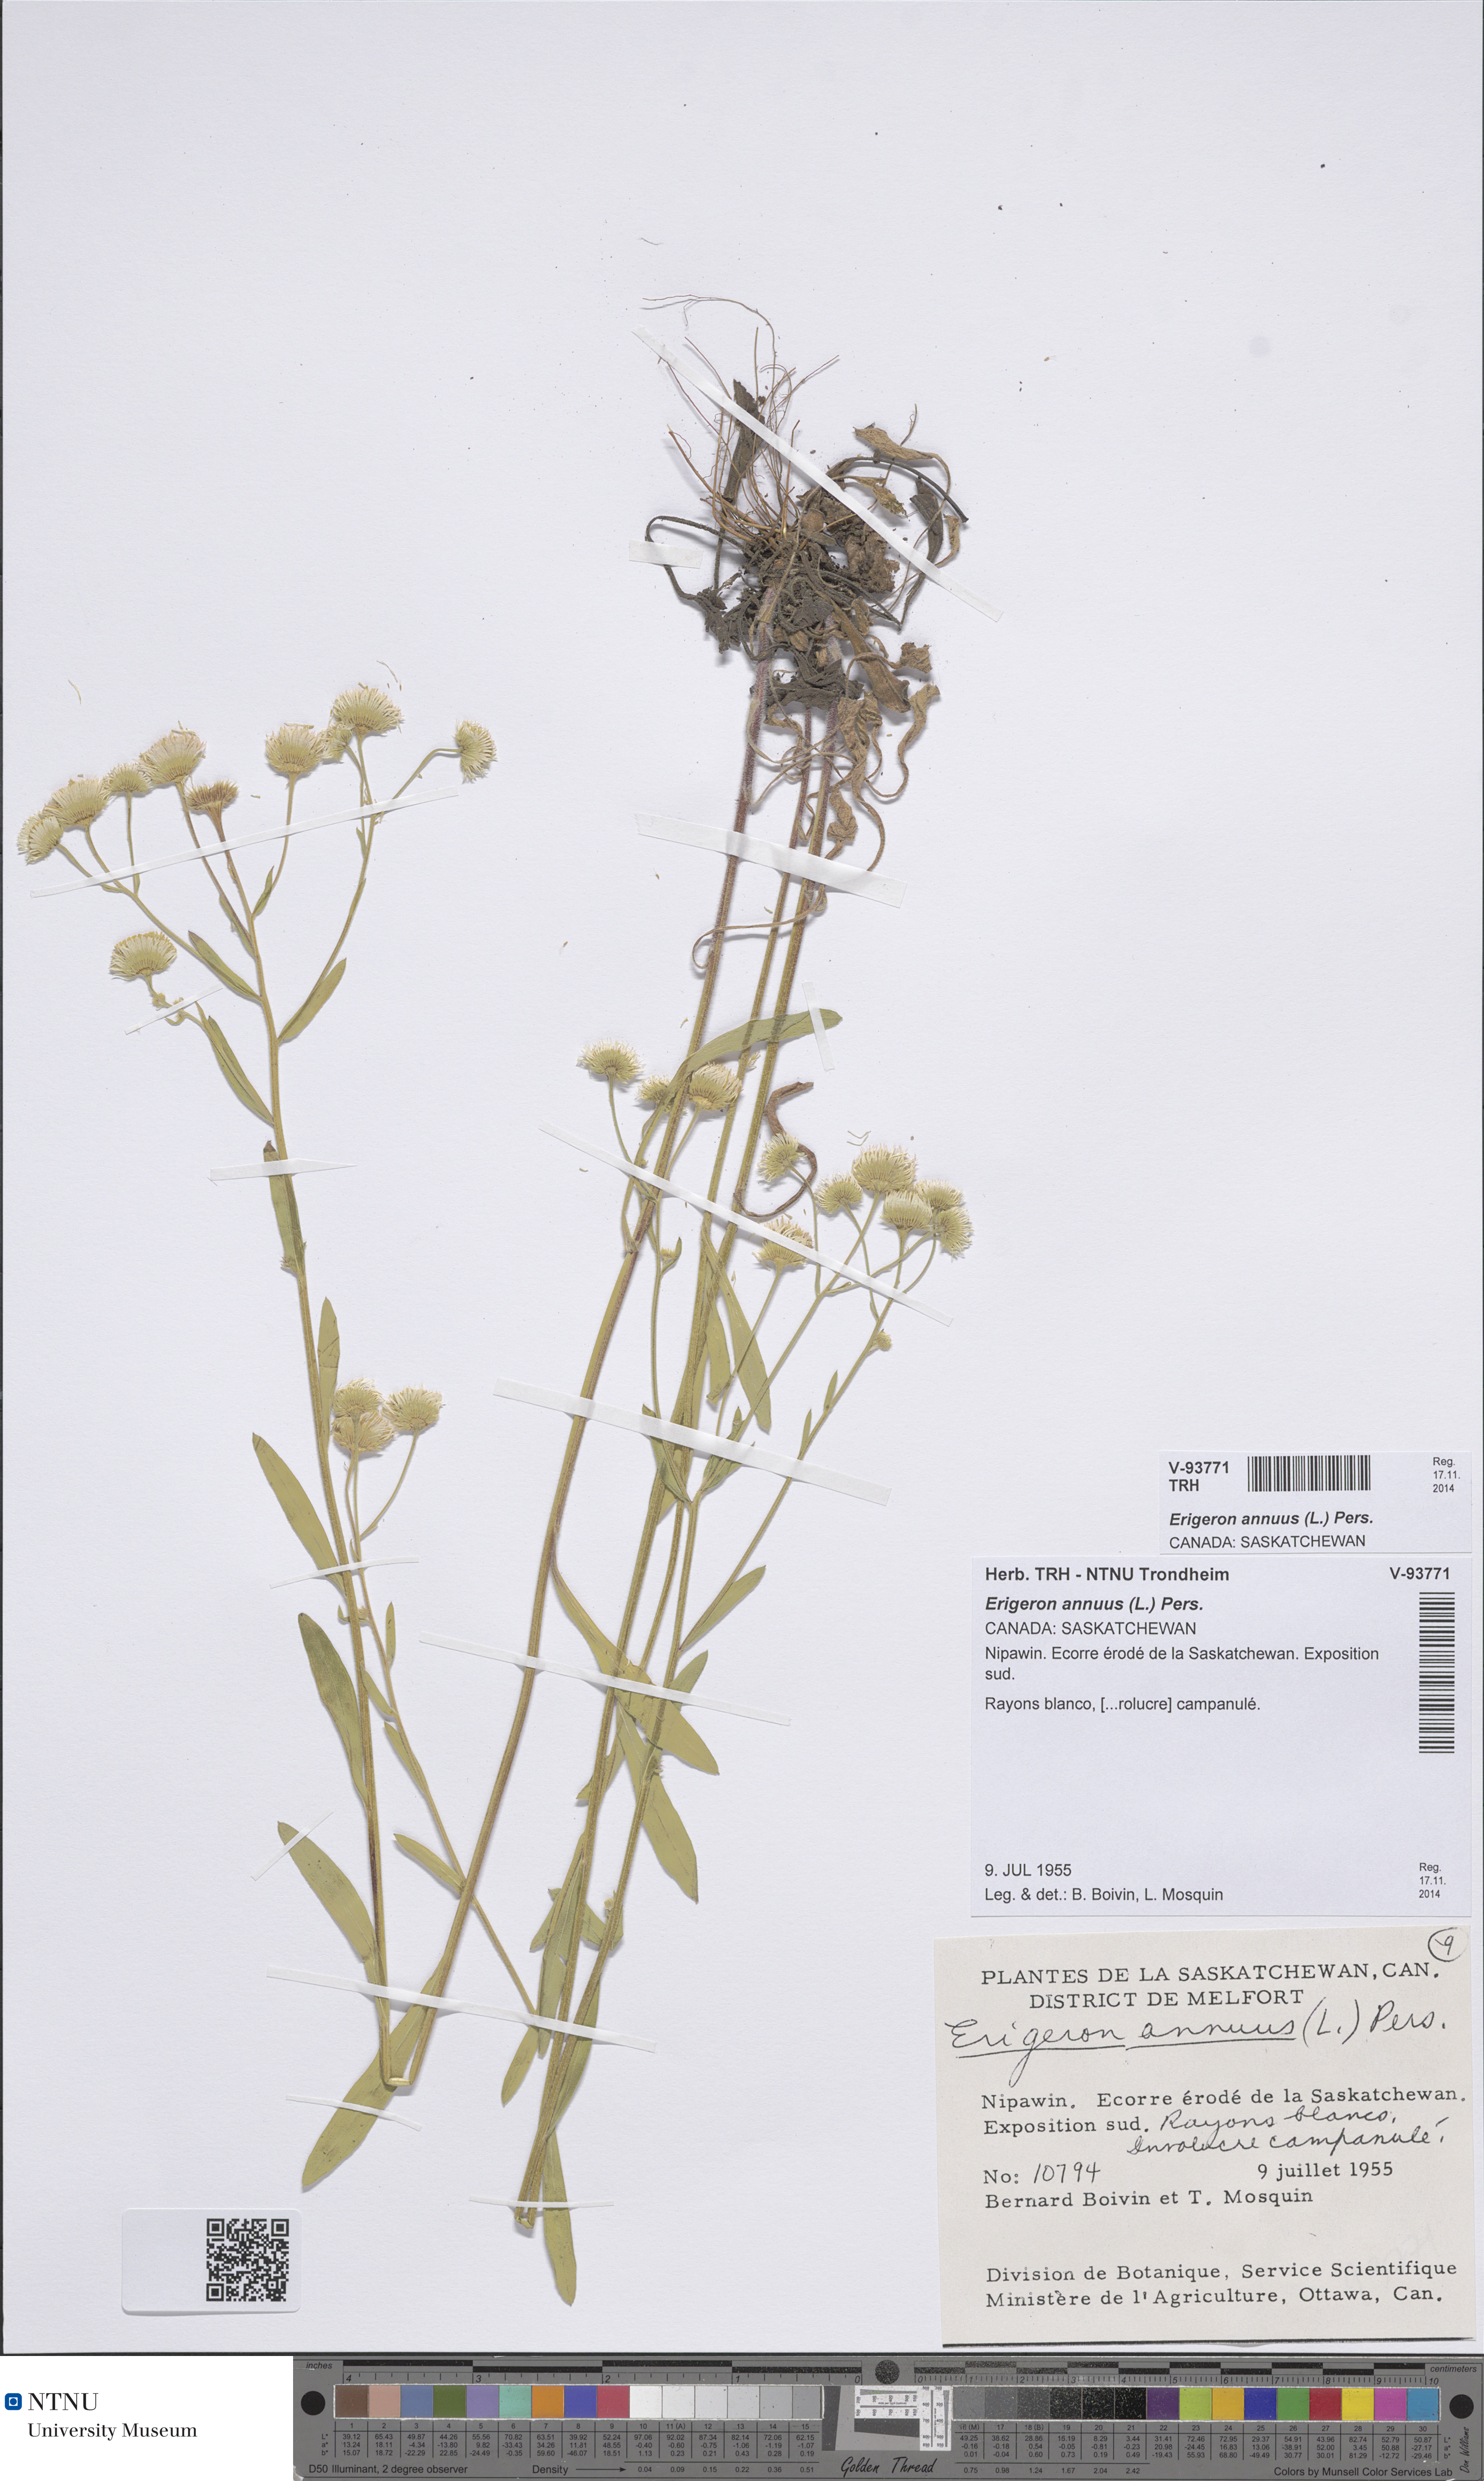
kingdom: Plantae
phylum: Tracheophyta
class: Magnoliopsida
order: Asterales
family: Asteraceae
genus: Erigeron
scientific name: Erigeron annuus
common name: Tall fleabane
